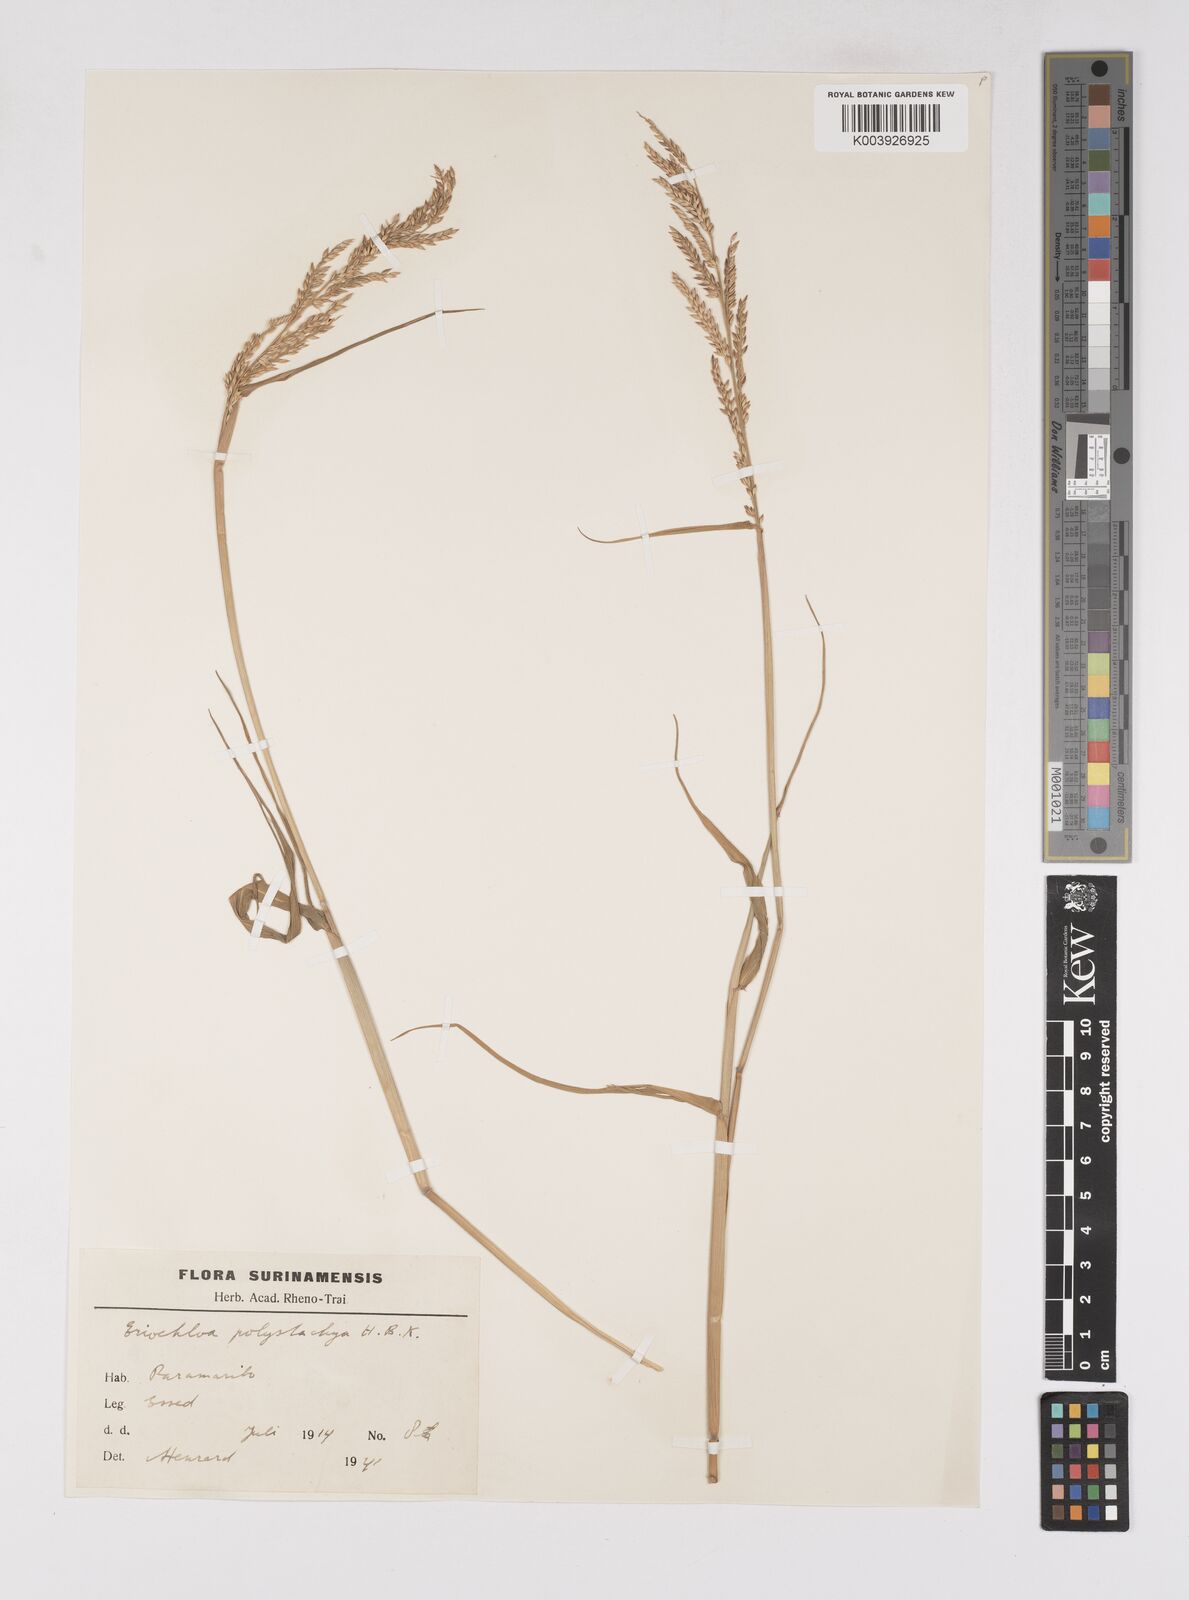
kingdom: Plantae
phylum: Tracheophyta
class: Liliopsida
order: Poales
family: Poaceae
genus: Urochloa
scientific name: Urochloa polystachya
